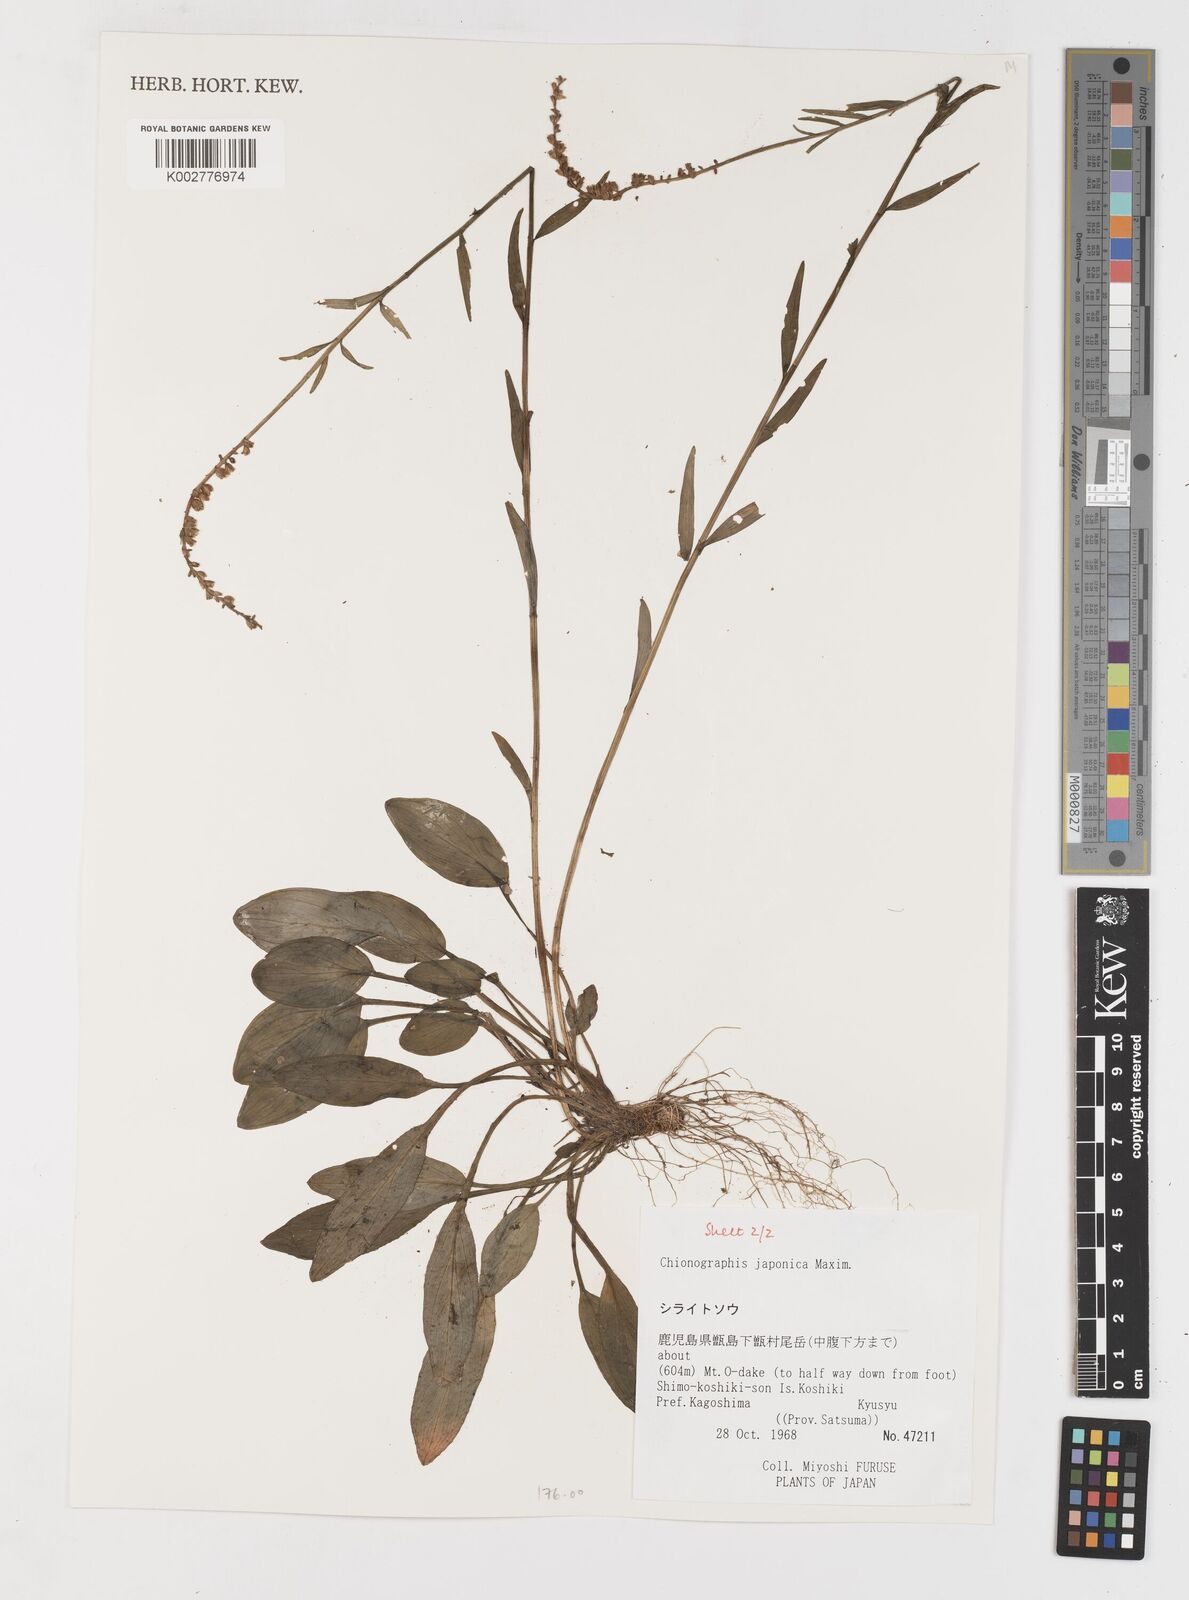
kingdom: Plantae
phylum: Tracheophyta
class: Liliopsida
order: Liliales
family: Melanthiaceae
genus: Chamaelirium
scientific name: Chamaelirium japonicum
